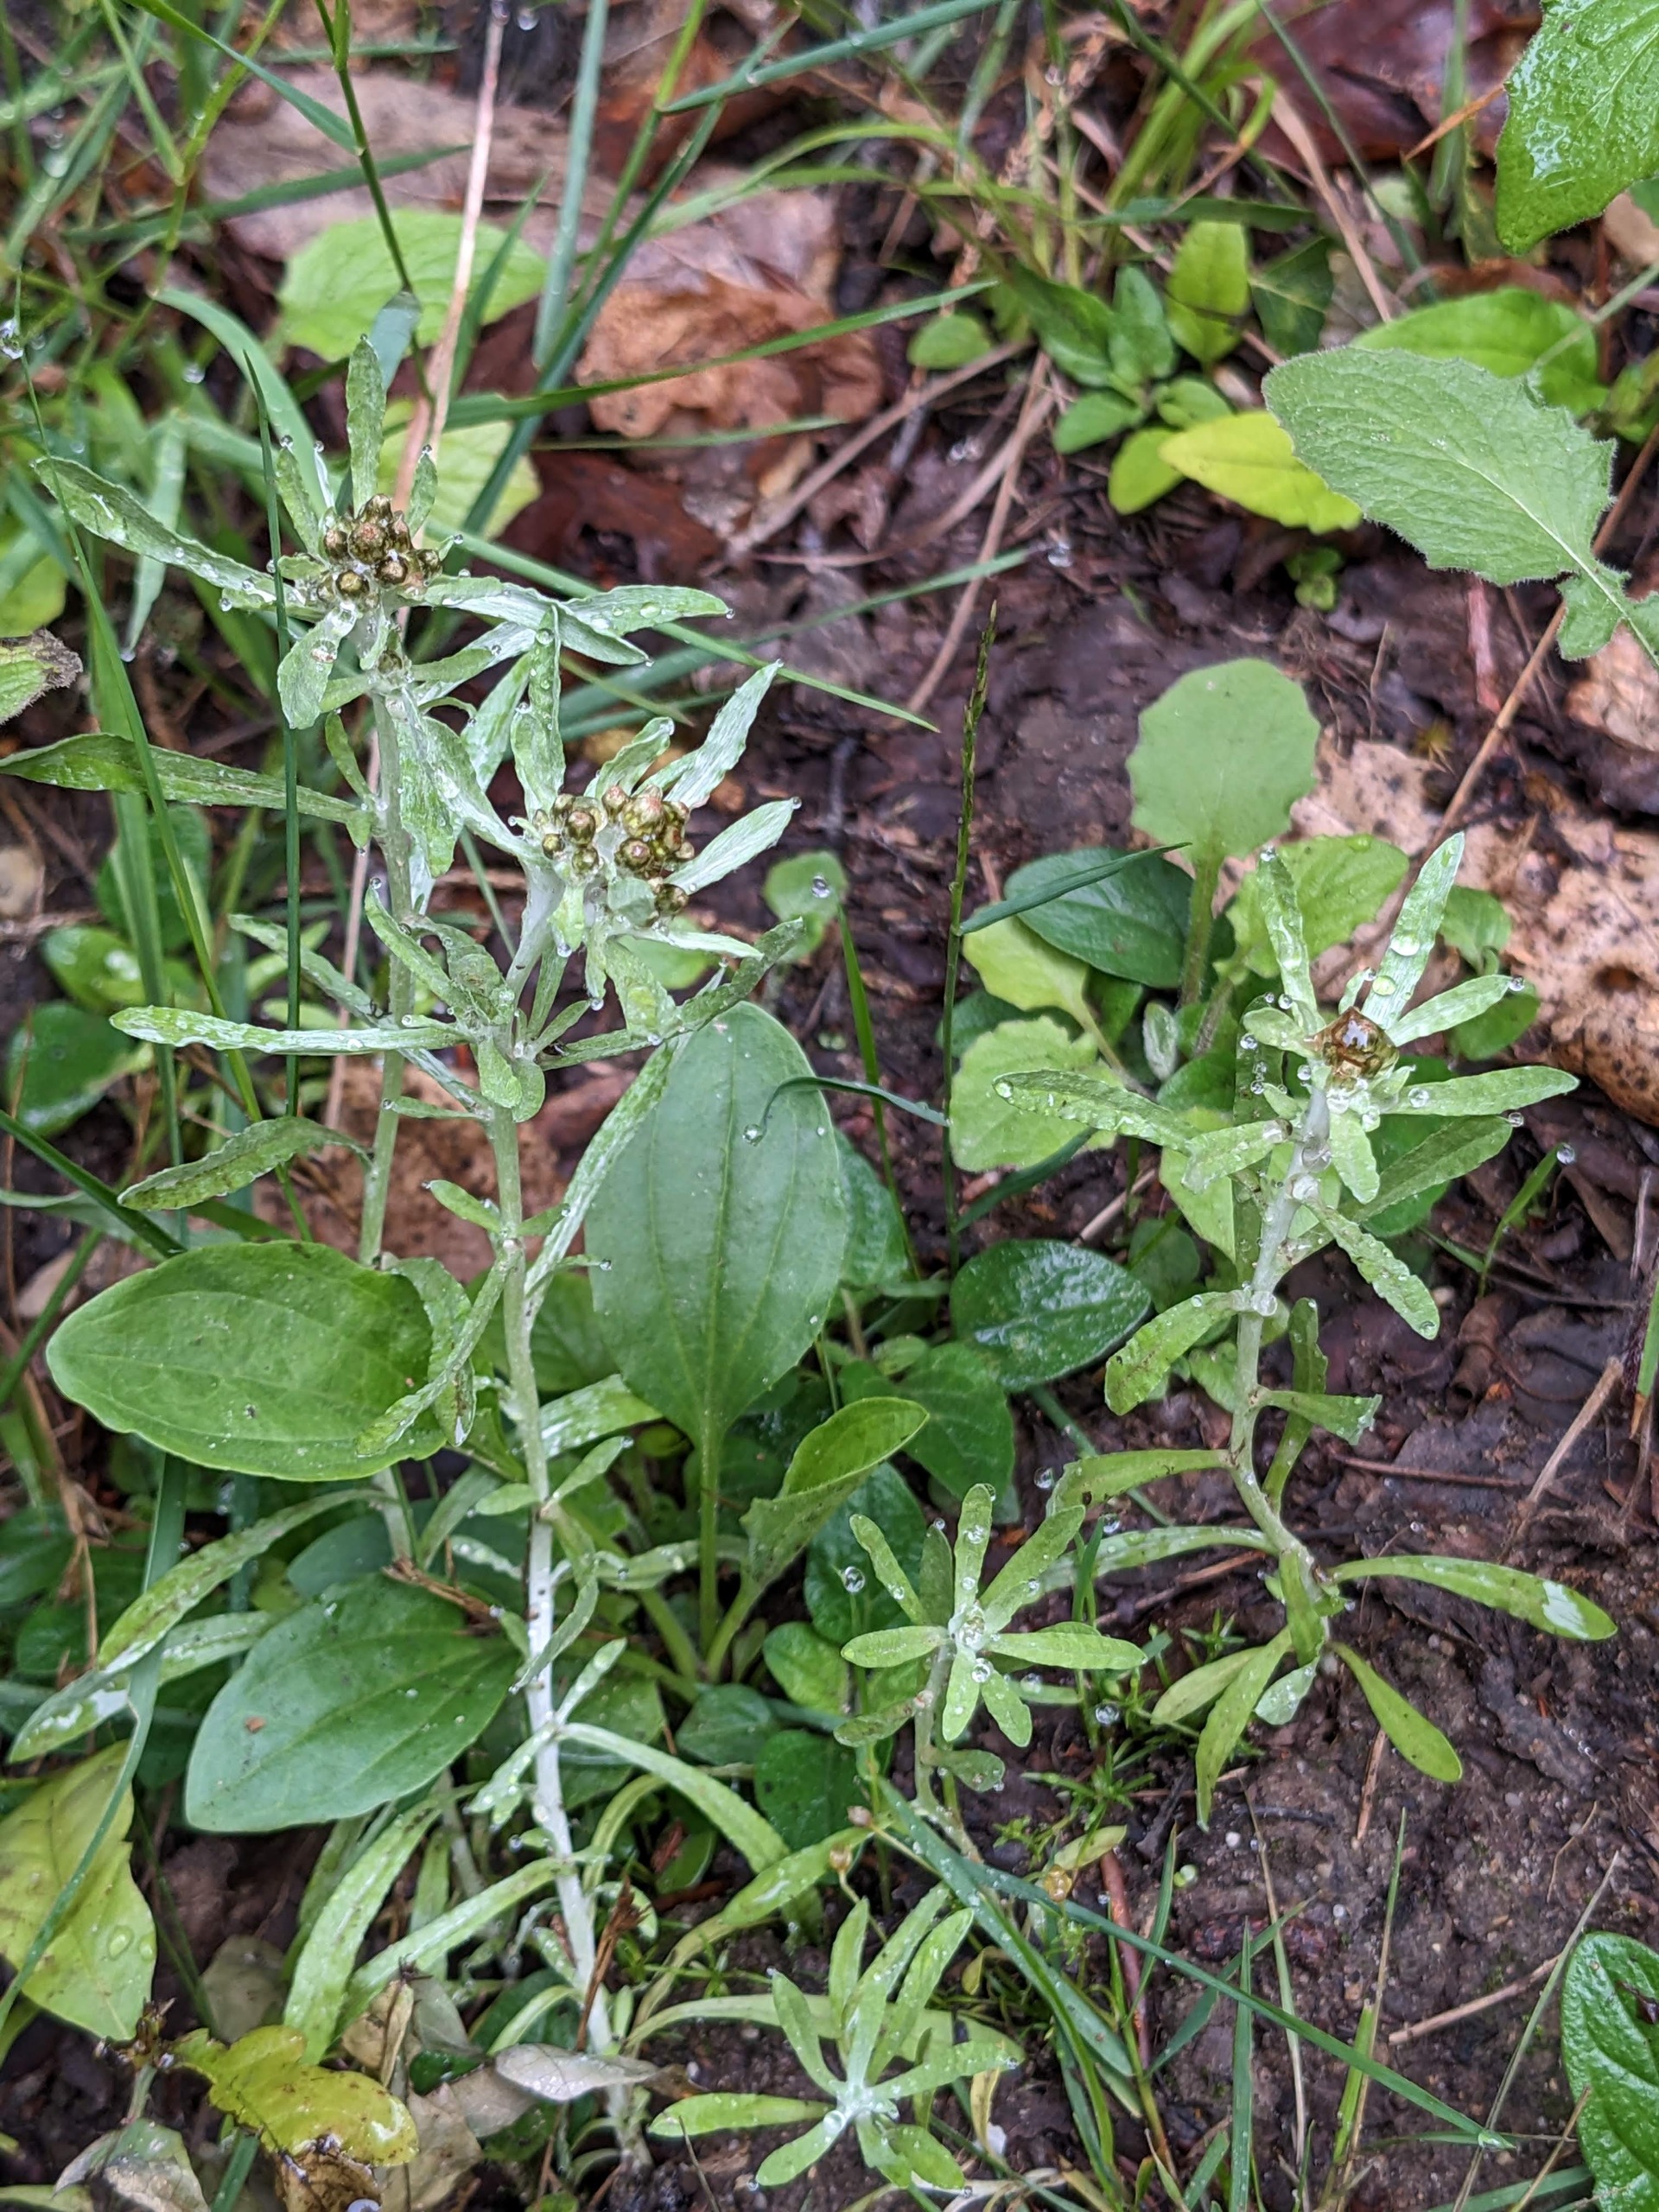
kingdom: Plantae
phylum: Tracheophyta
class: Magnoliopsida
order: Asterales
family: Asteraceae
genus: Gnaphalium
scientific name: Gnaphalium uliginosum
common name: Sump-evighedsblomst
